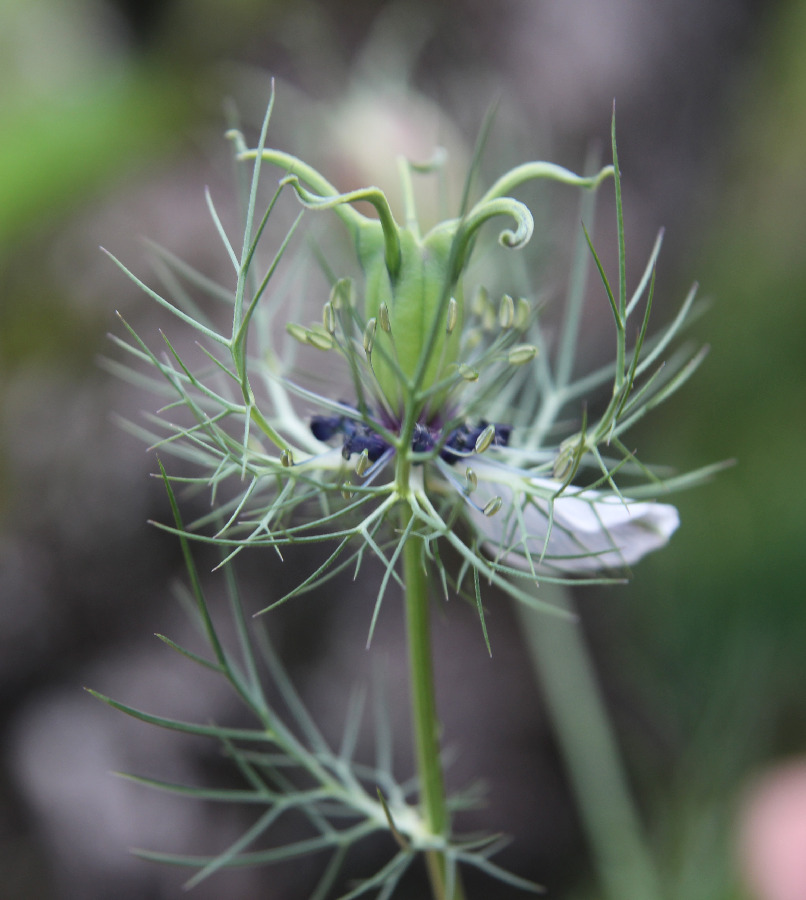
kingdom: Plantae
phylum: Tracheophyta
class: Magnoliopsida
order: Ranunculales
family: Ranunculaceae
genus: Nigella
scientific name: Nigella damascena
